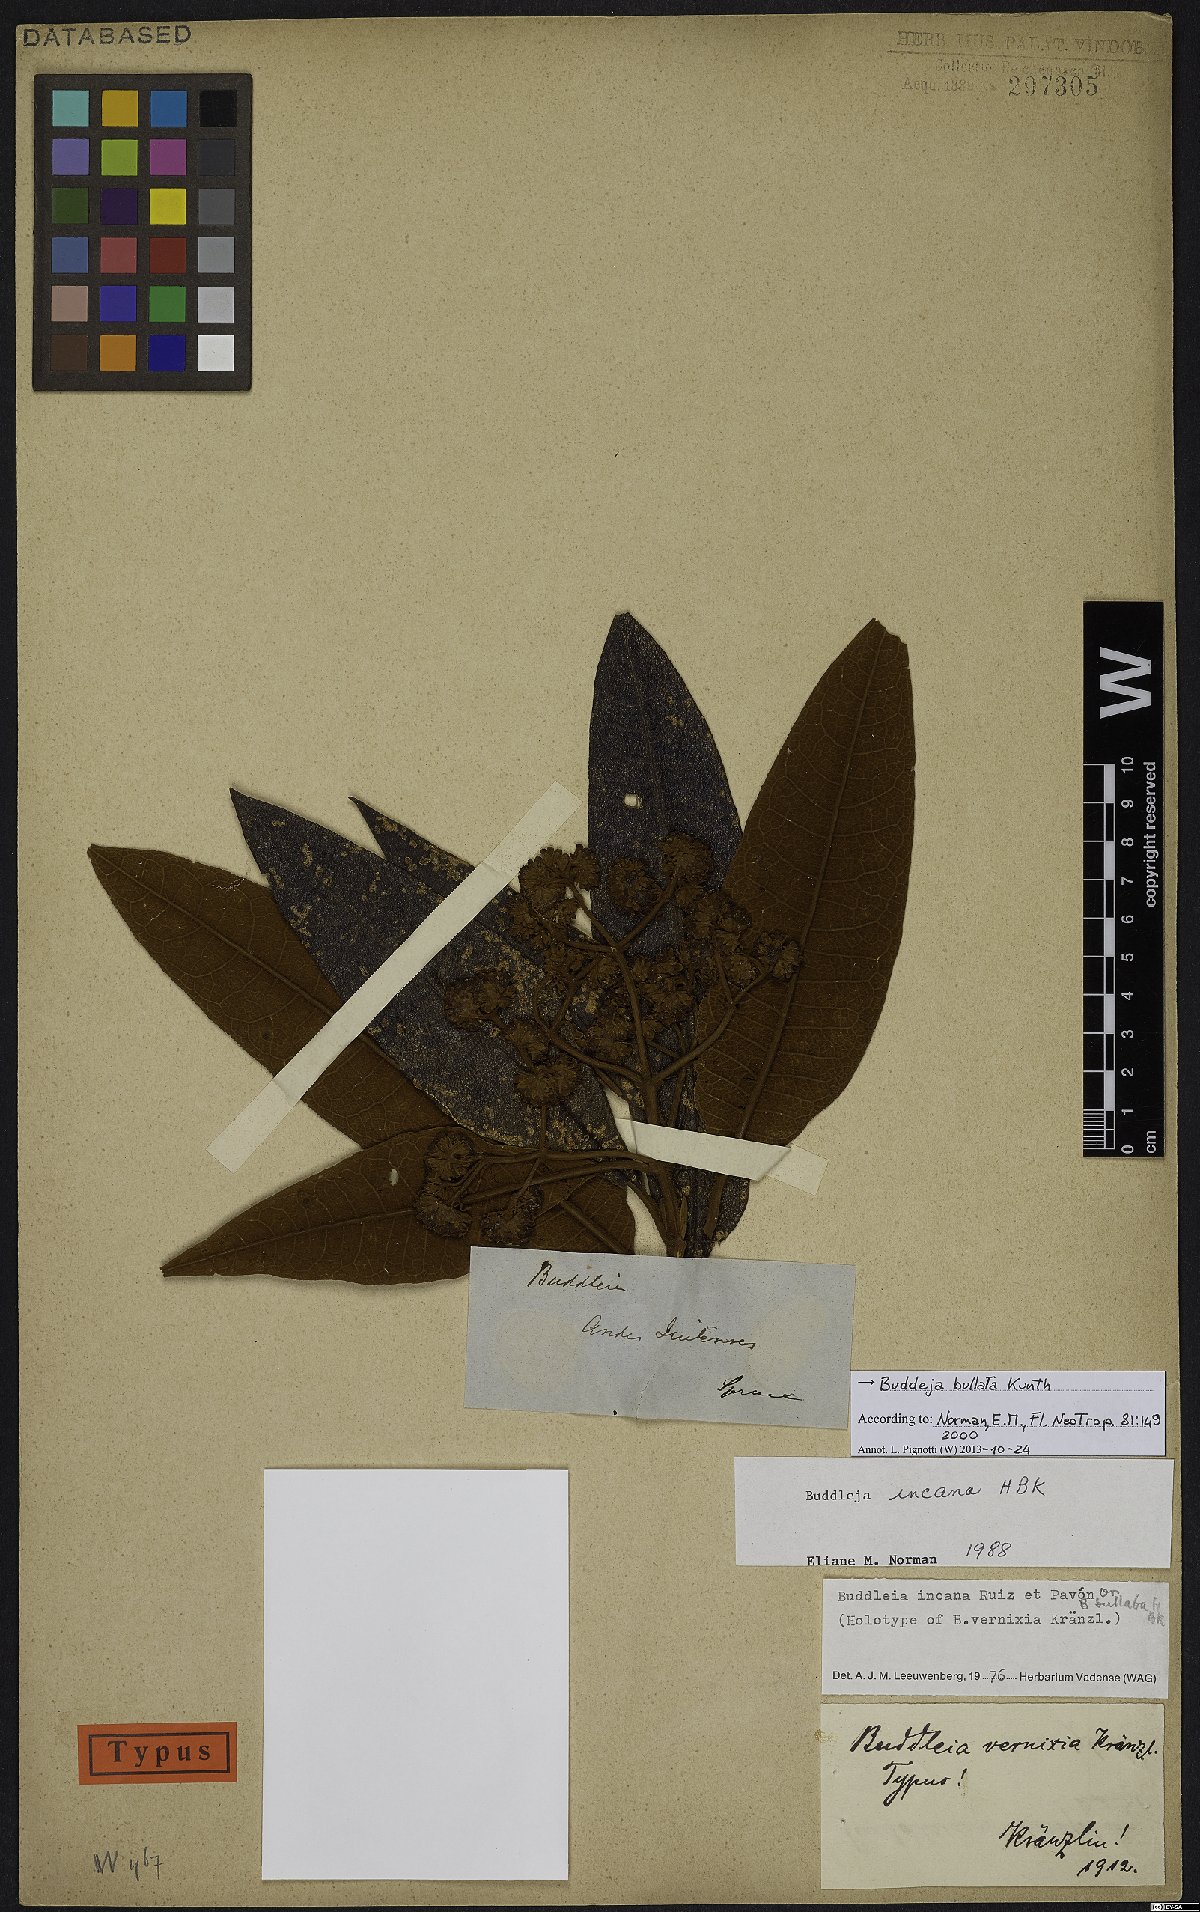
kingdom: Plantae
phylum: Tracheophyta
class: Magnoliopsida
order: Lamiales
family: Scrophulariaceae
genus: Buddleja
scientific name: Buddleja bullata
